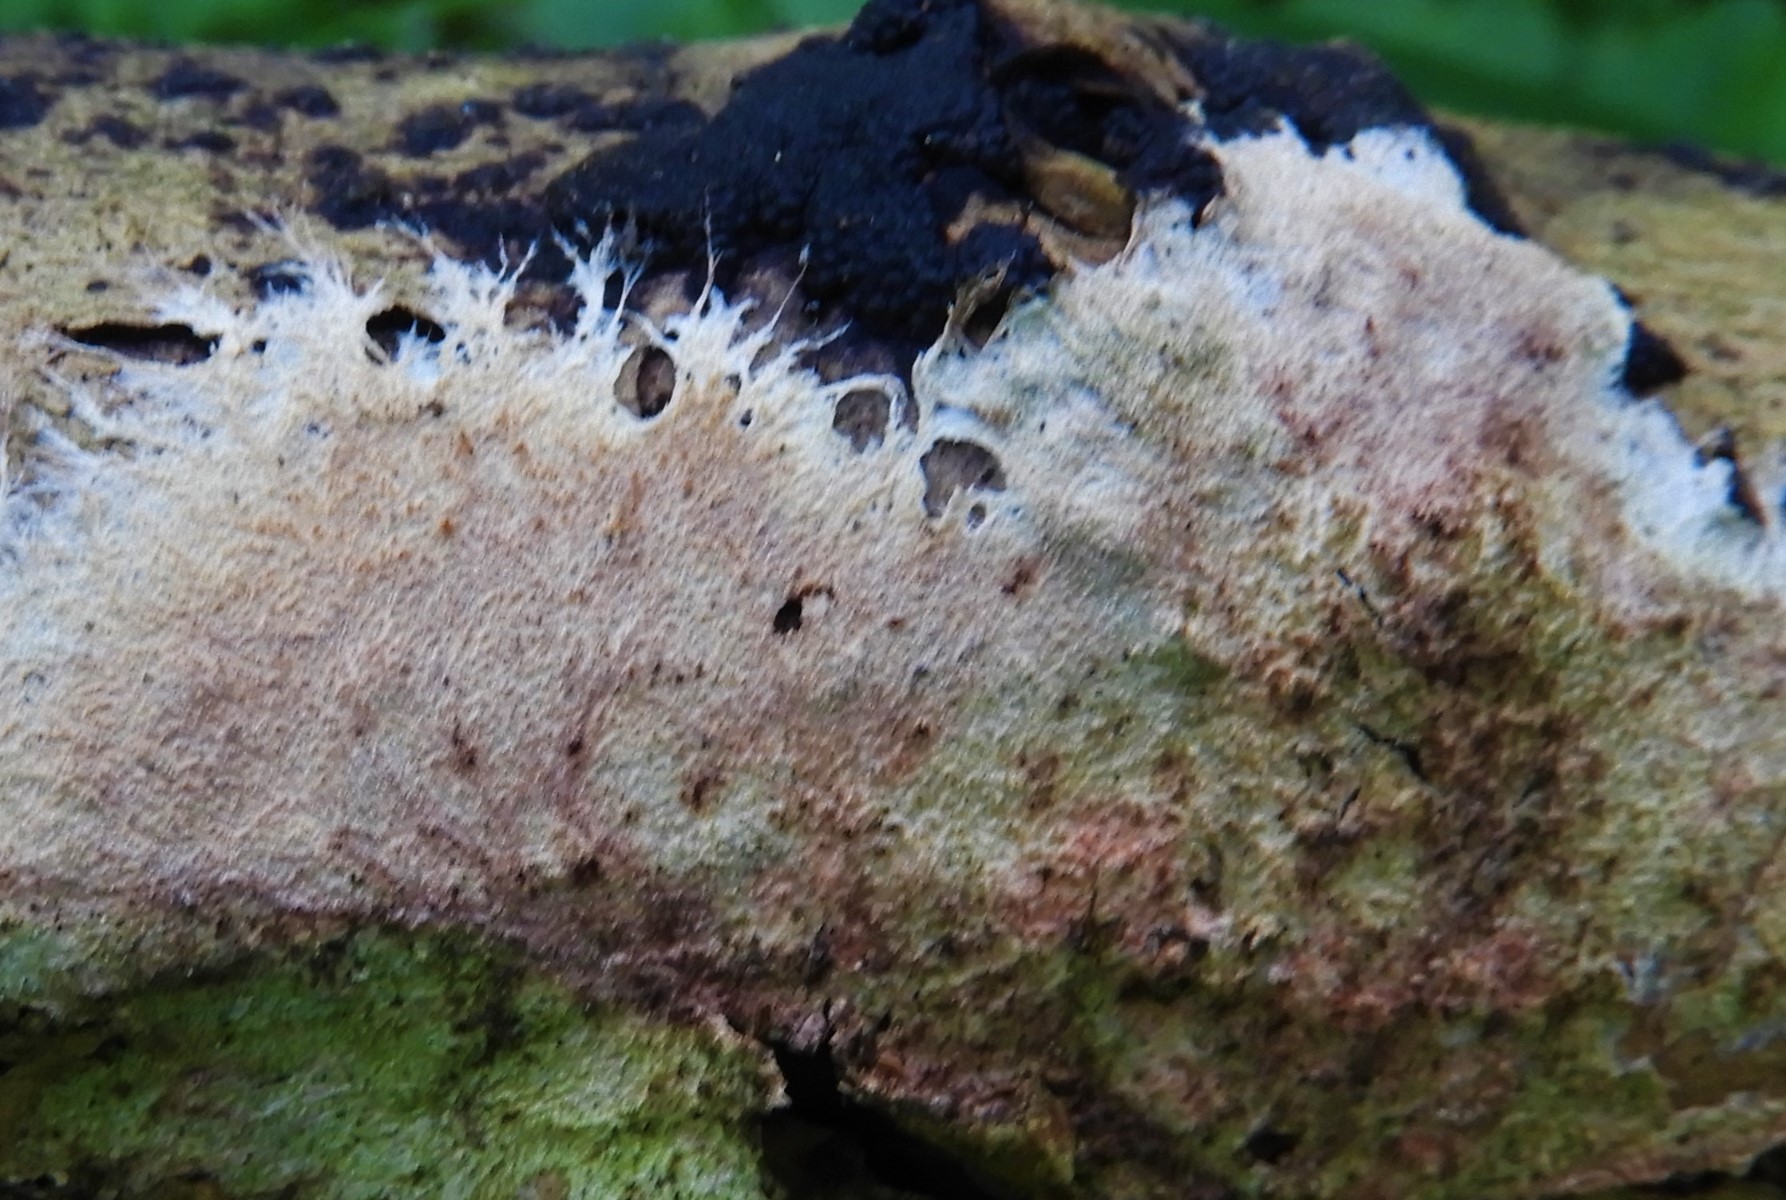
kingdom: Fungi
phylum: Basidiomycota
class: Agaricomycetes
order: Polyporales
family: Steccherinaceae
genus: Steccherinum
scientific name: Steccherinum fimbriatum
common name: trådet skønpig
